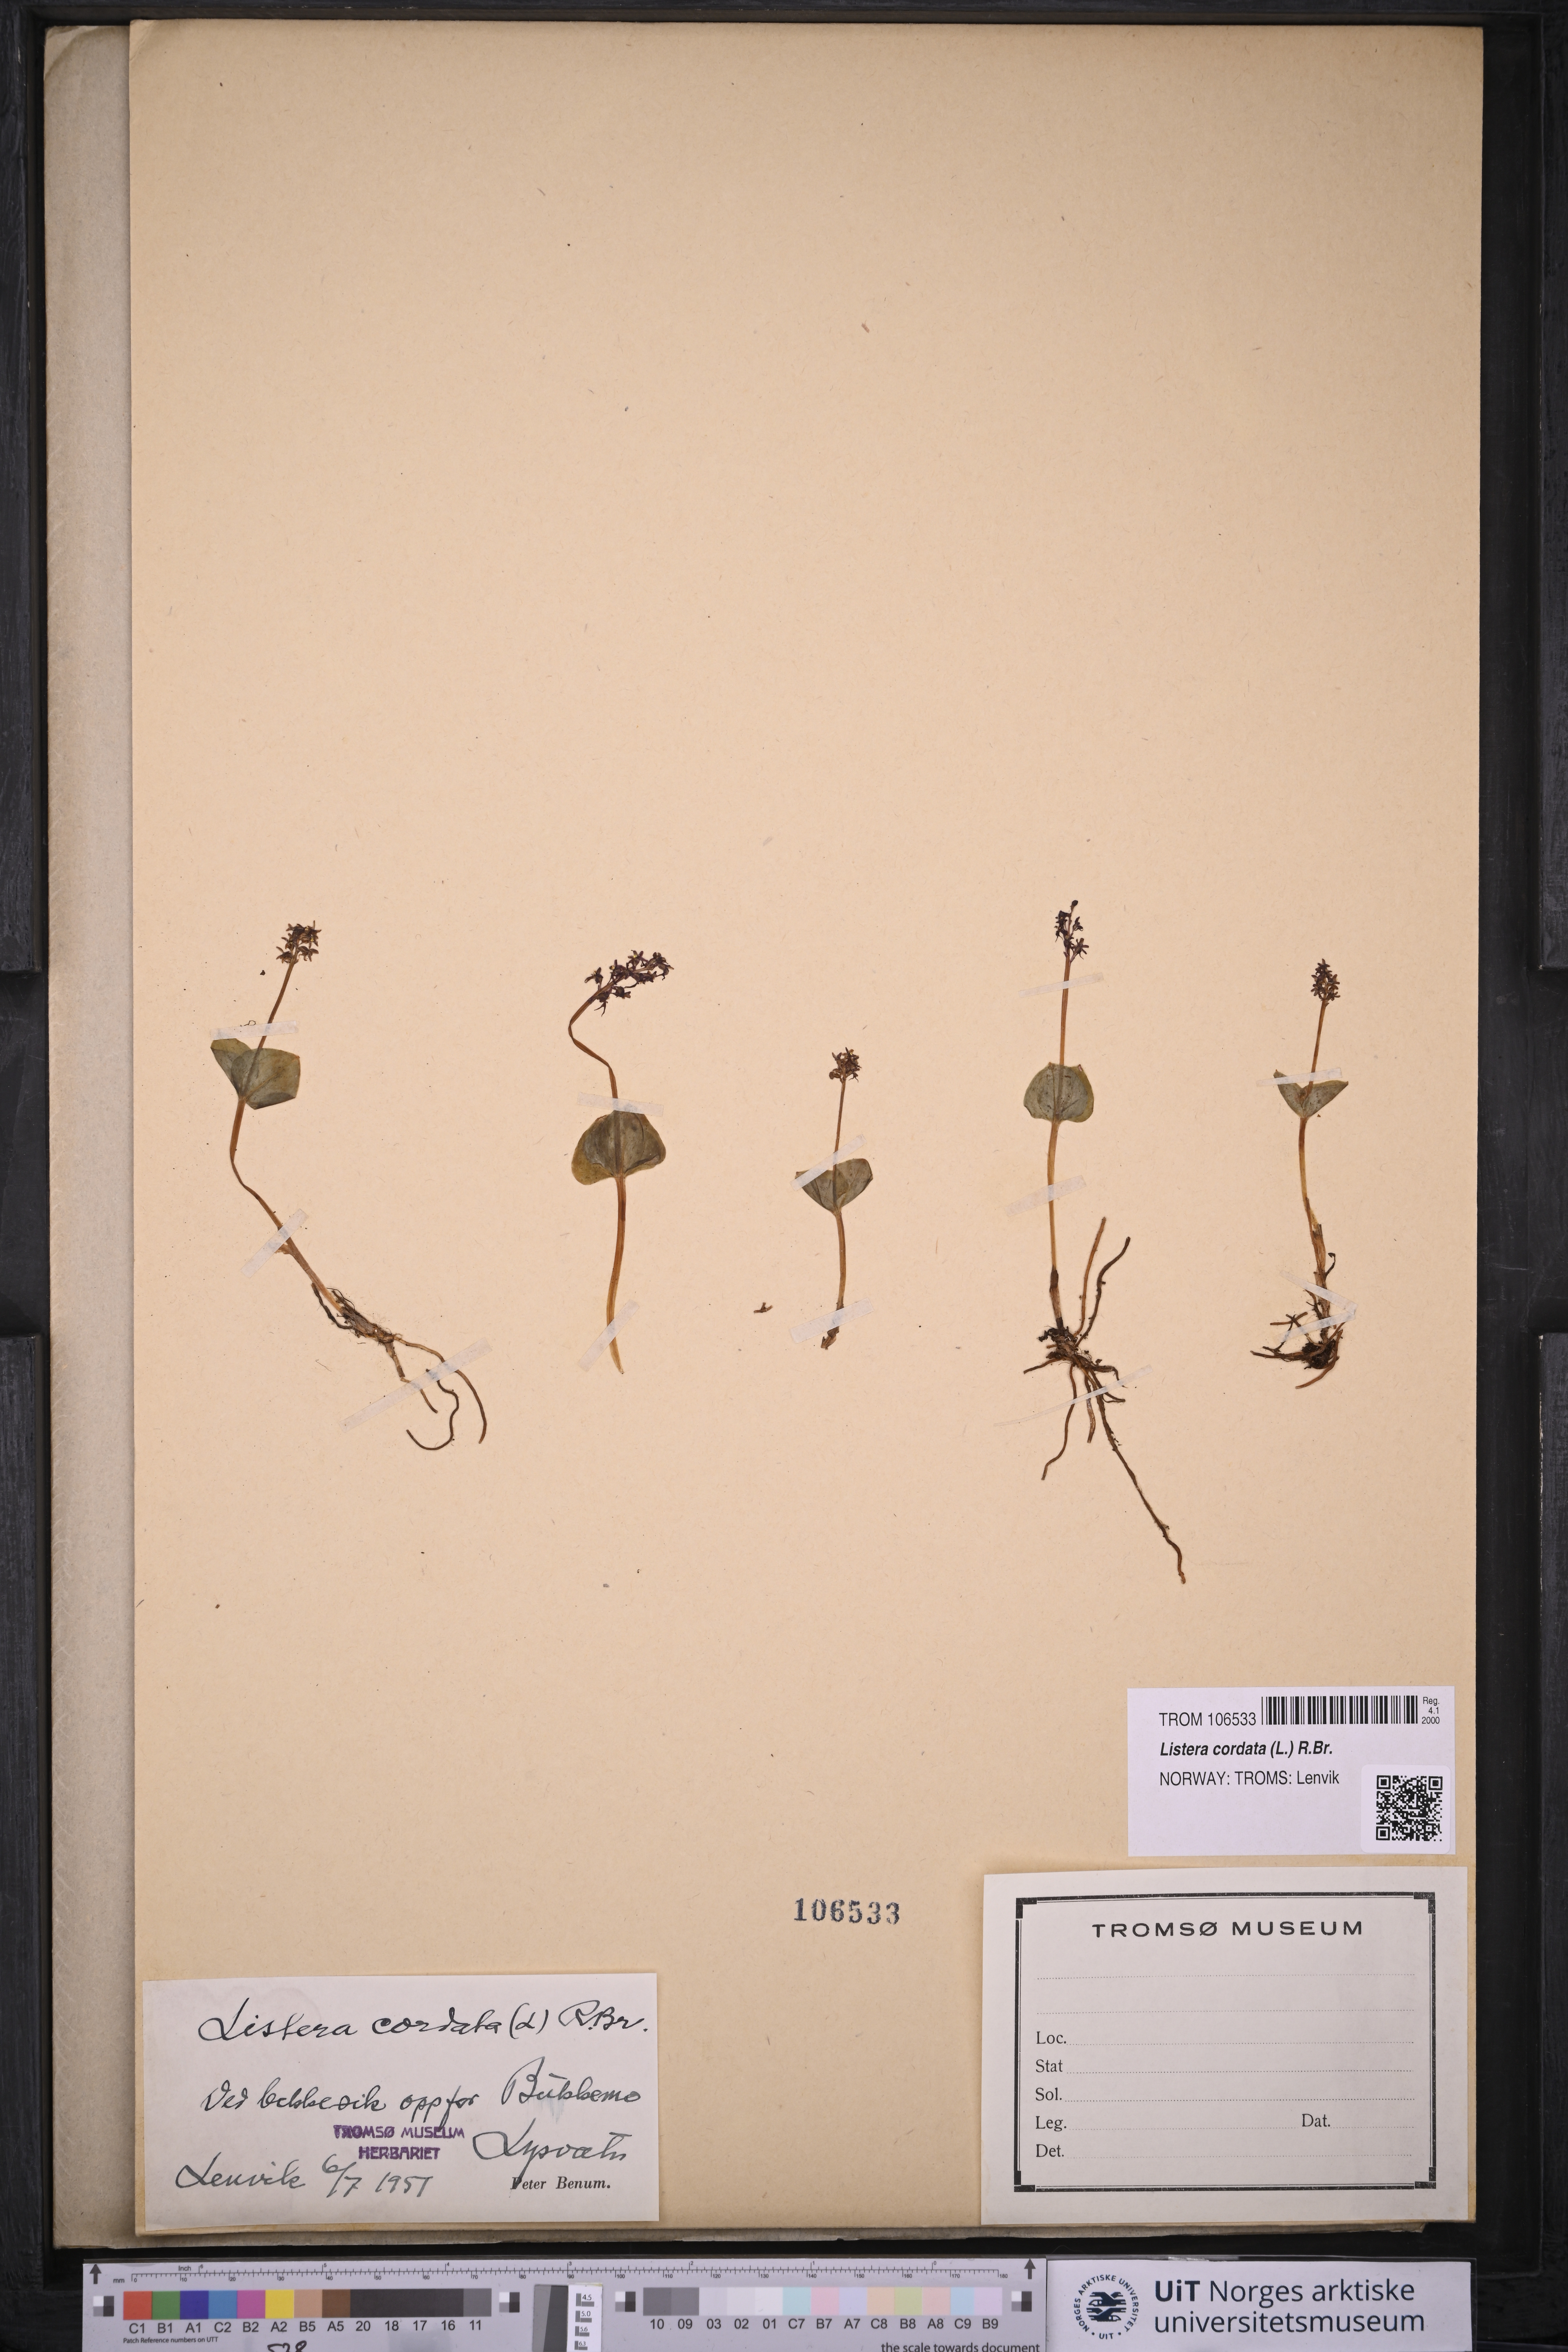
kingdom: Plantae
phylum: Tracheophyta
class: Liliopsida
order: Asparagales
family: Orchidaceae
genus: Neottia
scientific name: Neottia cordata
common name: Lesser twayblade
